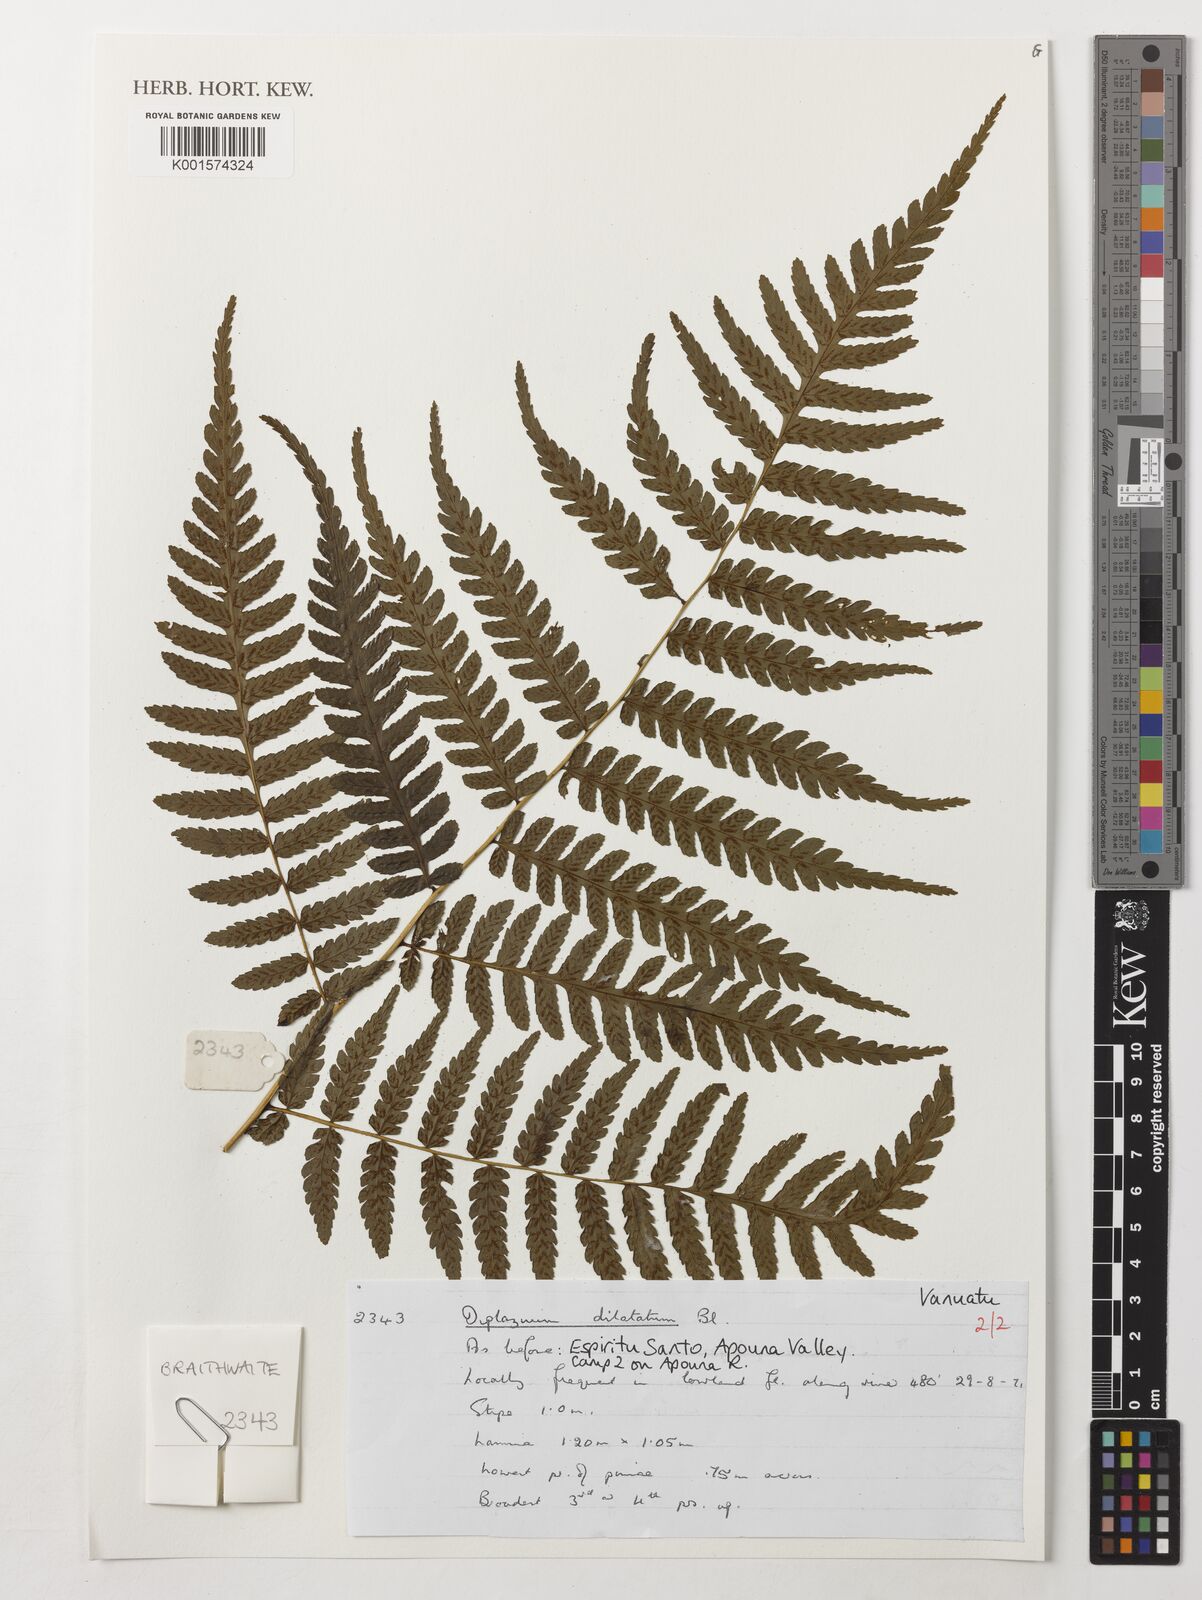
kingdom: Plantae
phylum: Tracheophyta
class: Polypodiopsida
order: Polypodiales
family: Athyriaceae
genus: Diplazium
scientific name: Diplazium dilatatum
